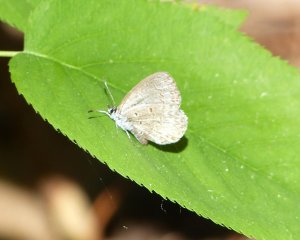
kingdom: Animalia
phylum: Arthropoda
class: Insecta
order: Lepidoptera
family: Lycaenidae
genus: Celastrina
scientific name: Celastrina lucia
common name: Northern Spring Azure
